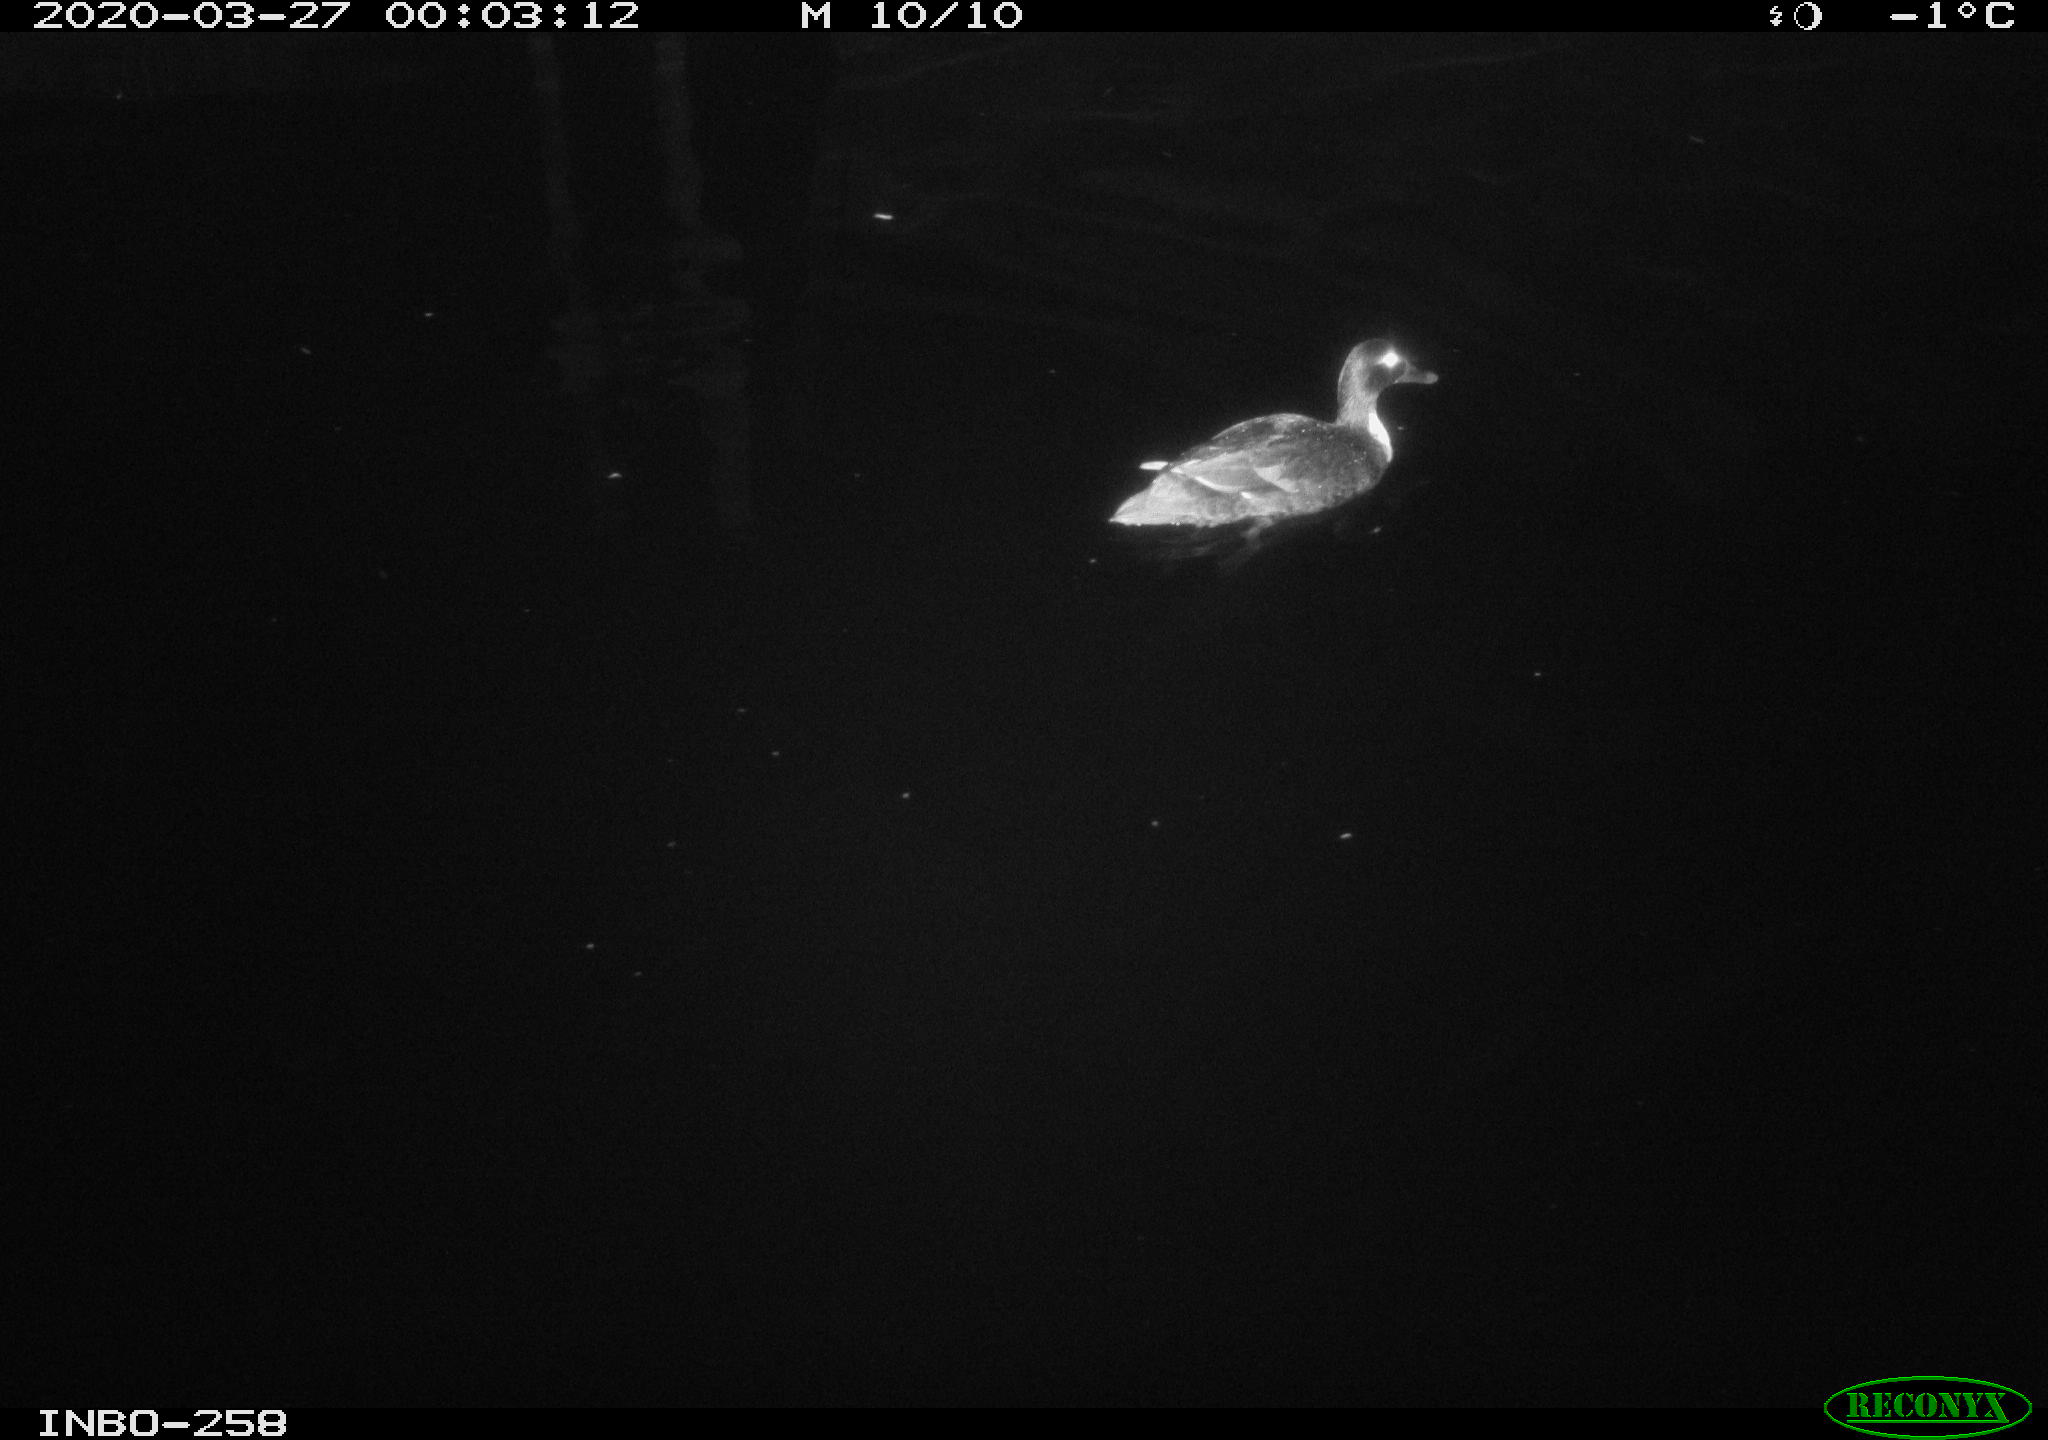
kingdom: Animalia
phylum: Chordata
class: Aves
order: Anseriformes
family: Anatidae
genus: Anas
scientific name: Anas platyrhynchos
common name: Mallard
